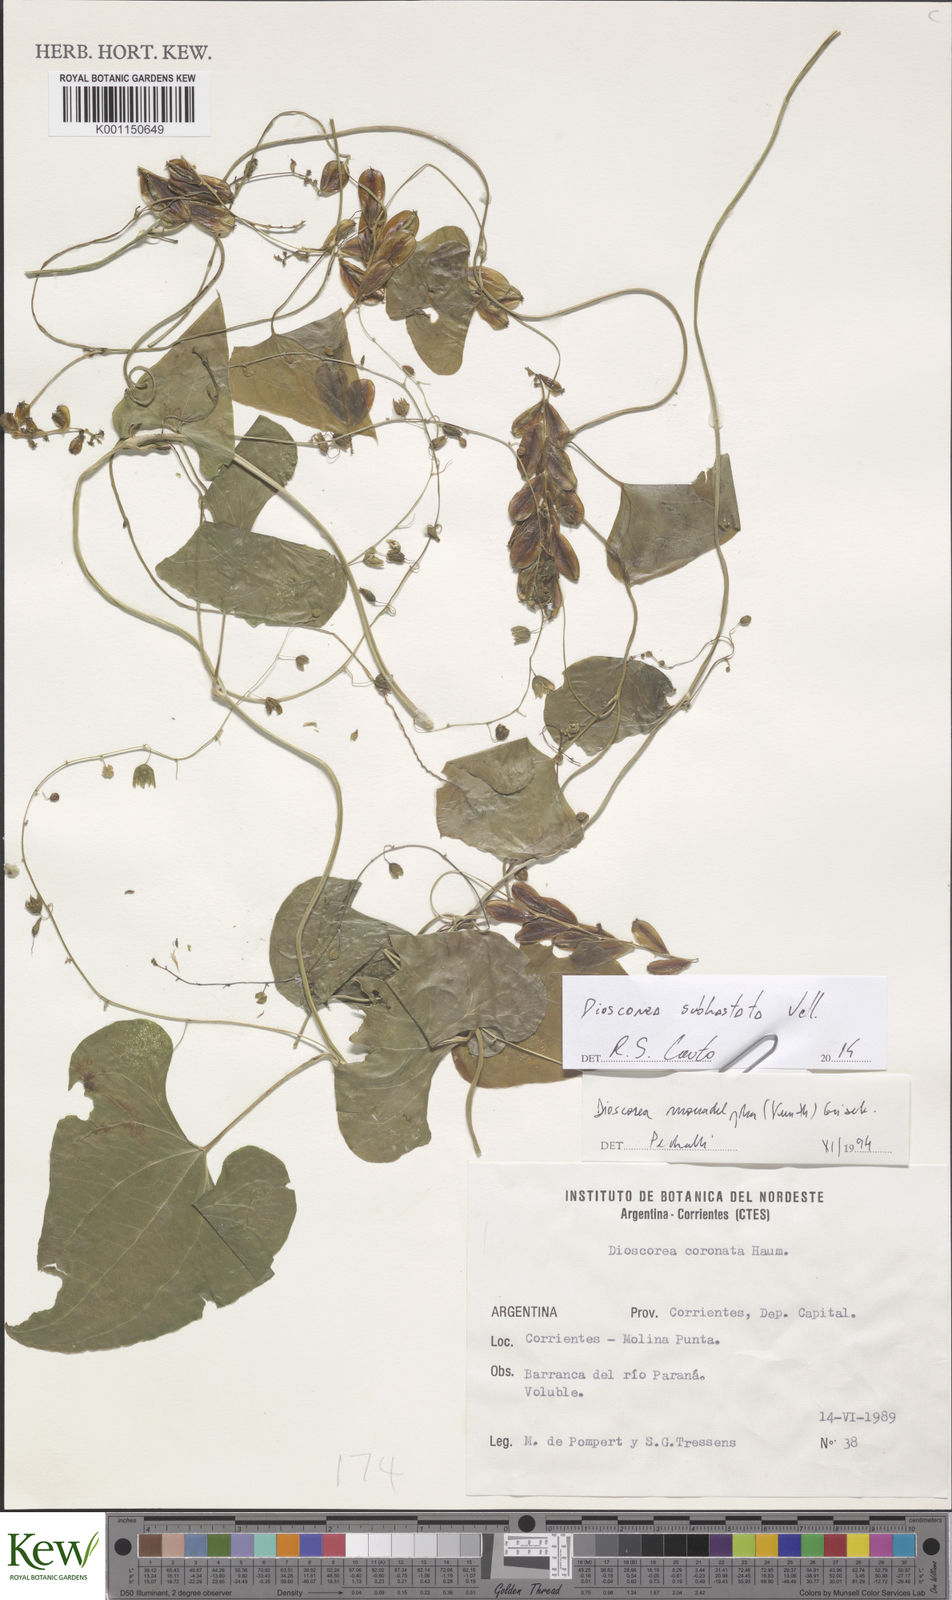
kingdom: Plantae
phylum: Tracheophyta
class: Liliopsida
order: Dioscoreales
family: Dioscoreaceae
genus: Dioscorea
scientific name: Dioscorea cienegensis
